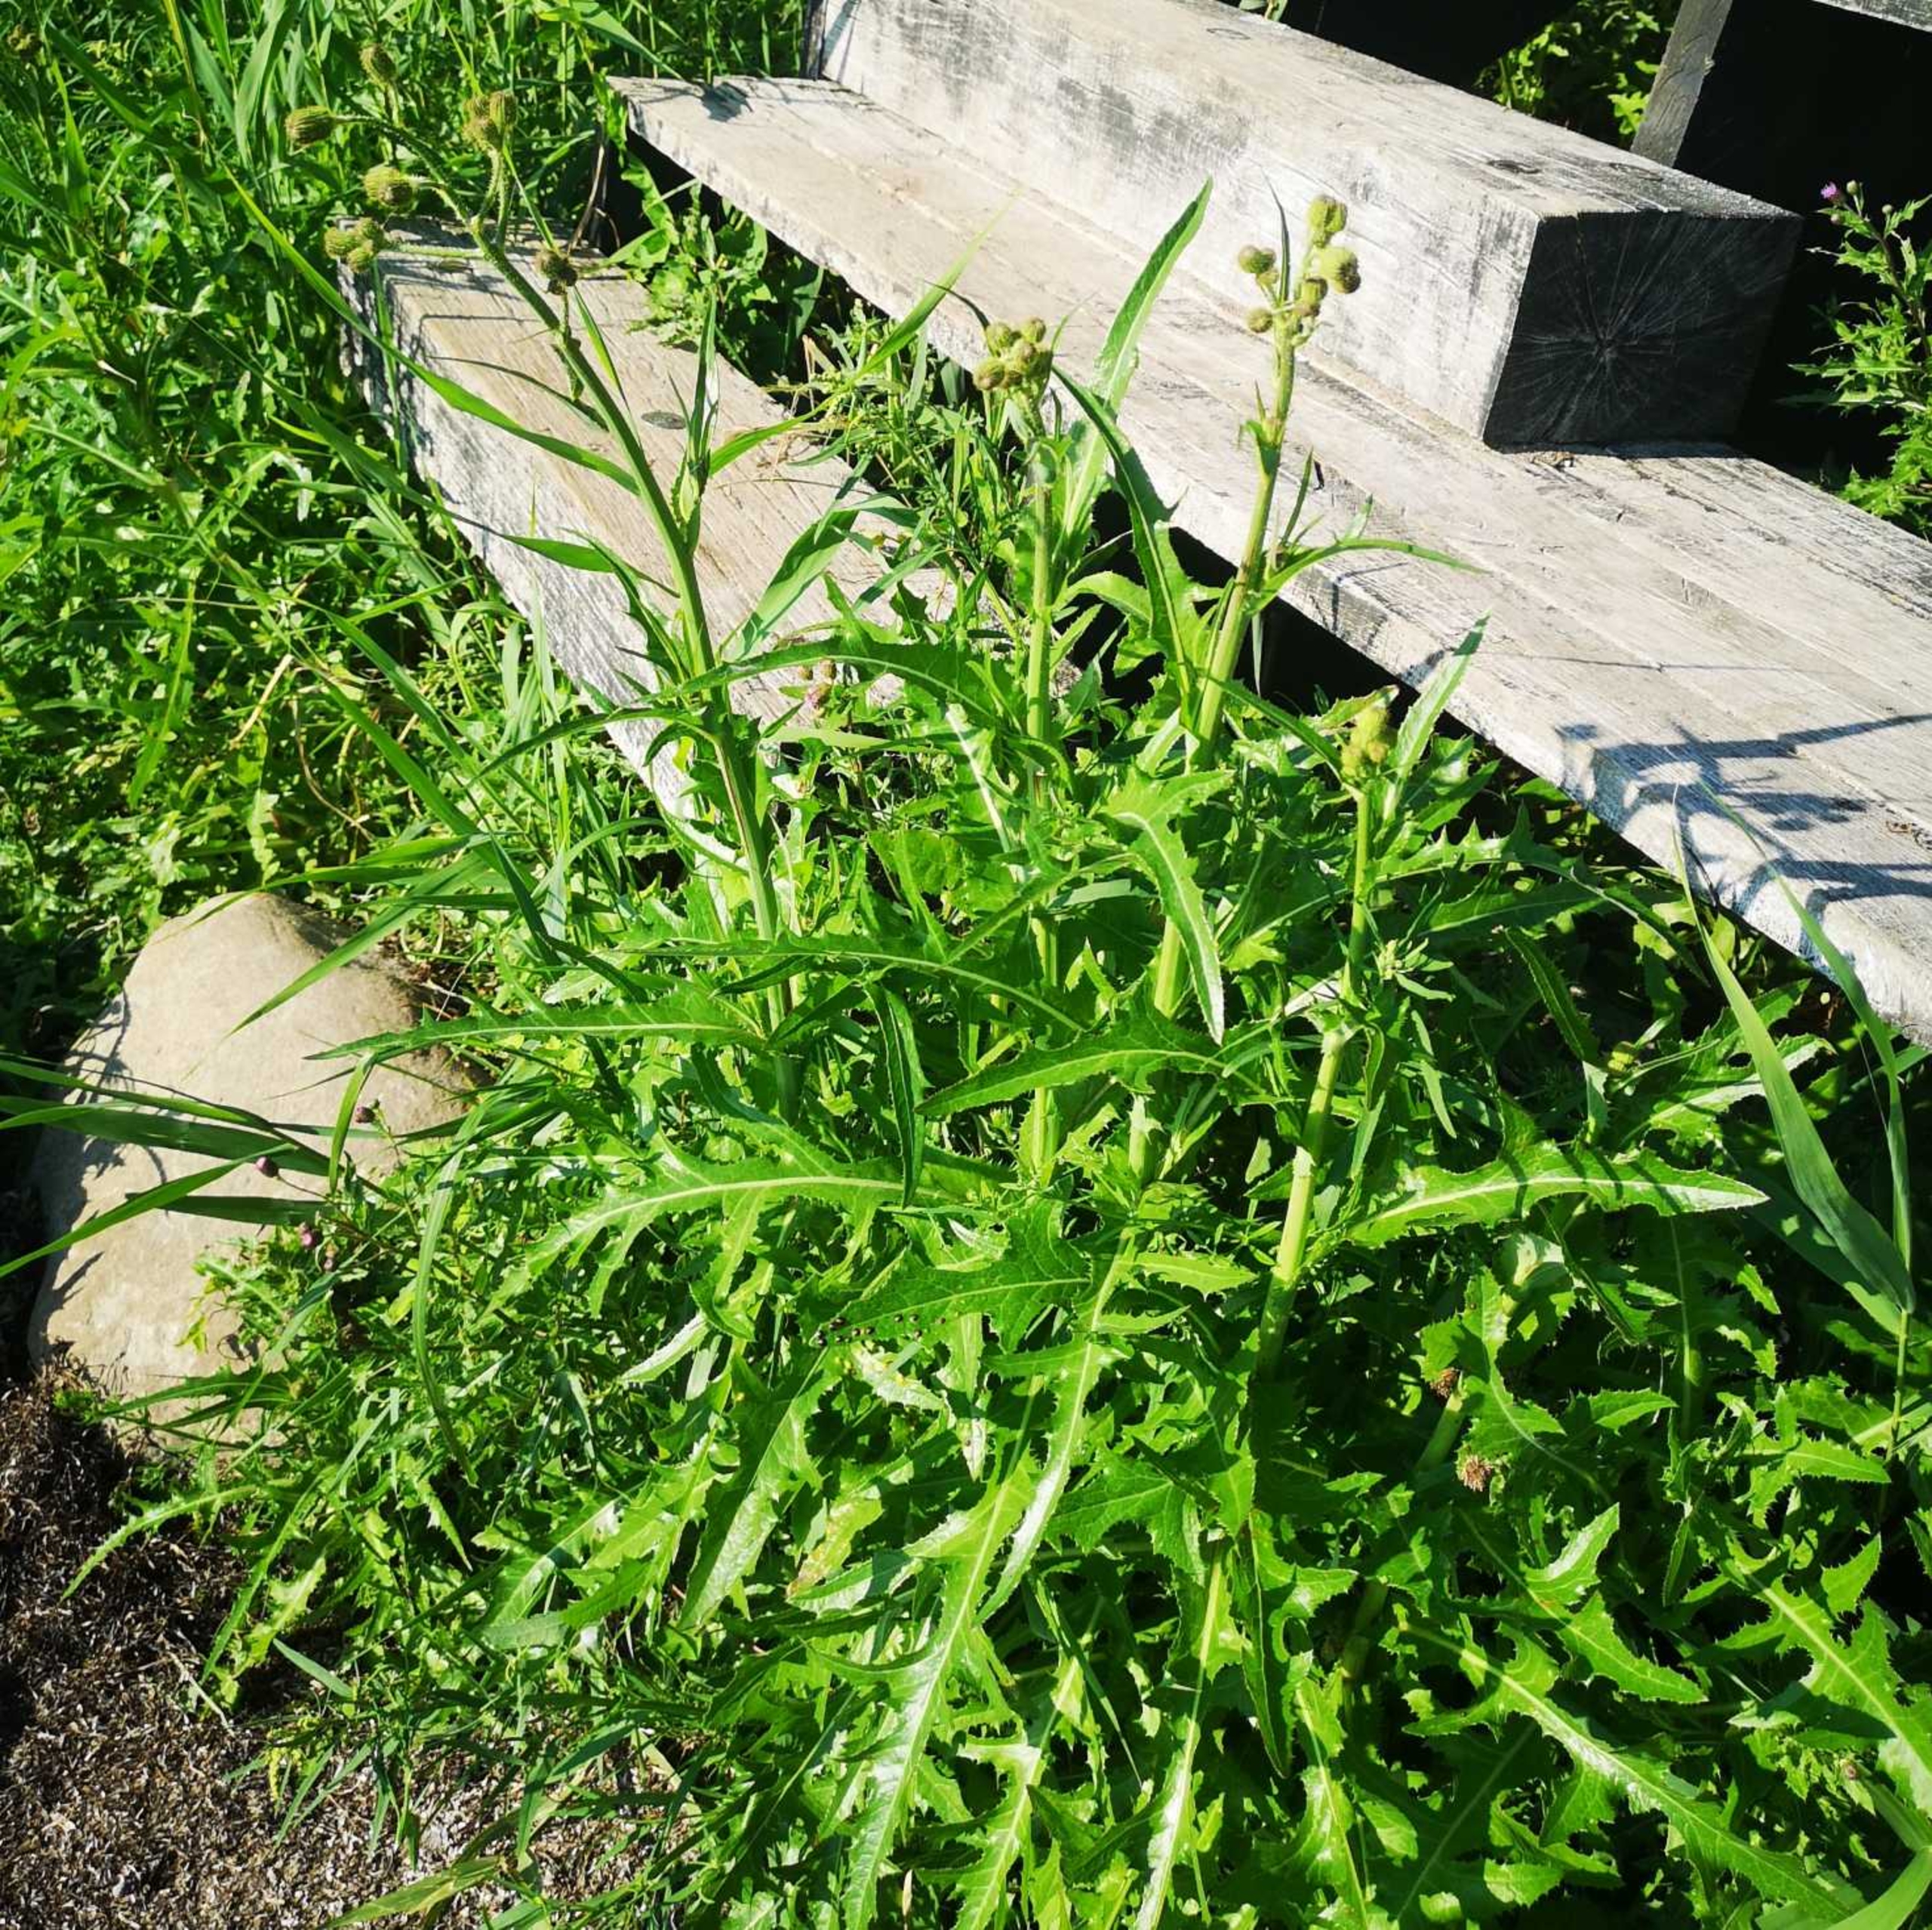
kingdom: Plantae
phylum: Tracheophyta
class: Magnoliopsida
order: Asterales
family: Asteraceae
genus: Sonchus
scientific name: Sonchus arvensis
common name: Ager-svinemælk
